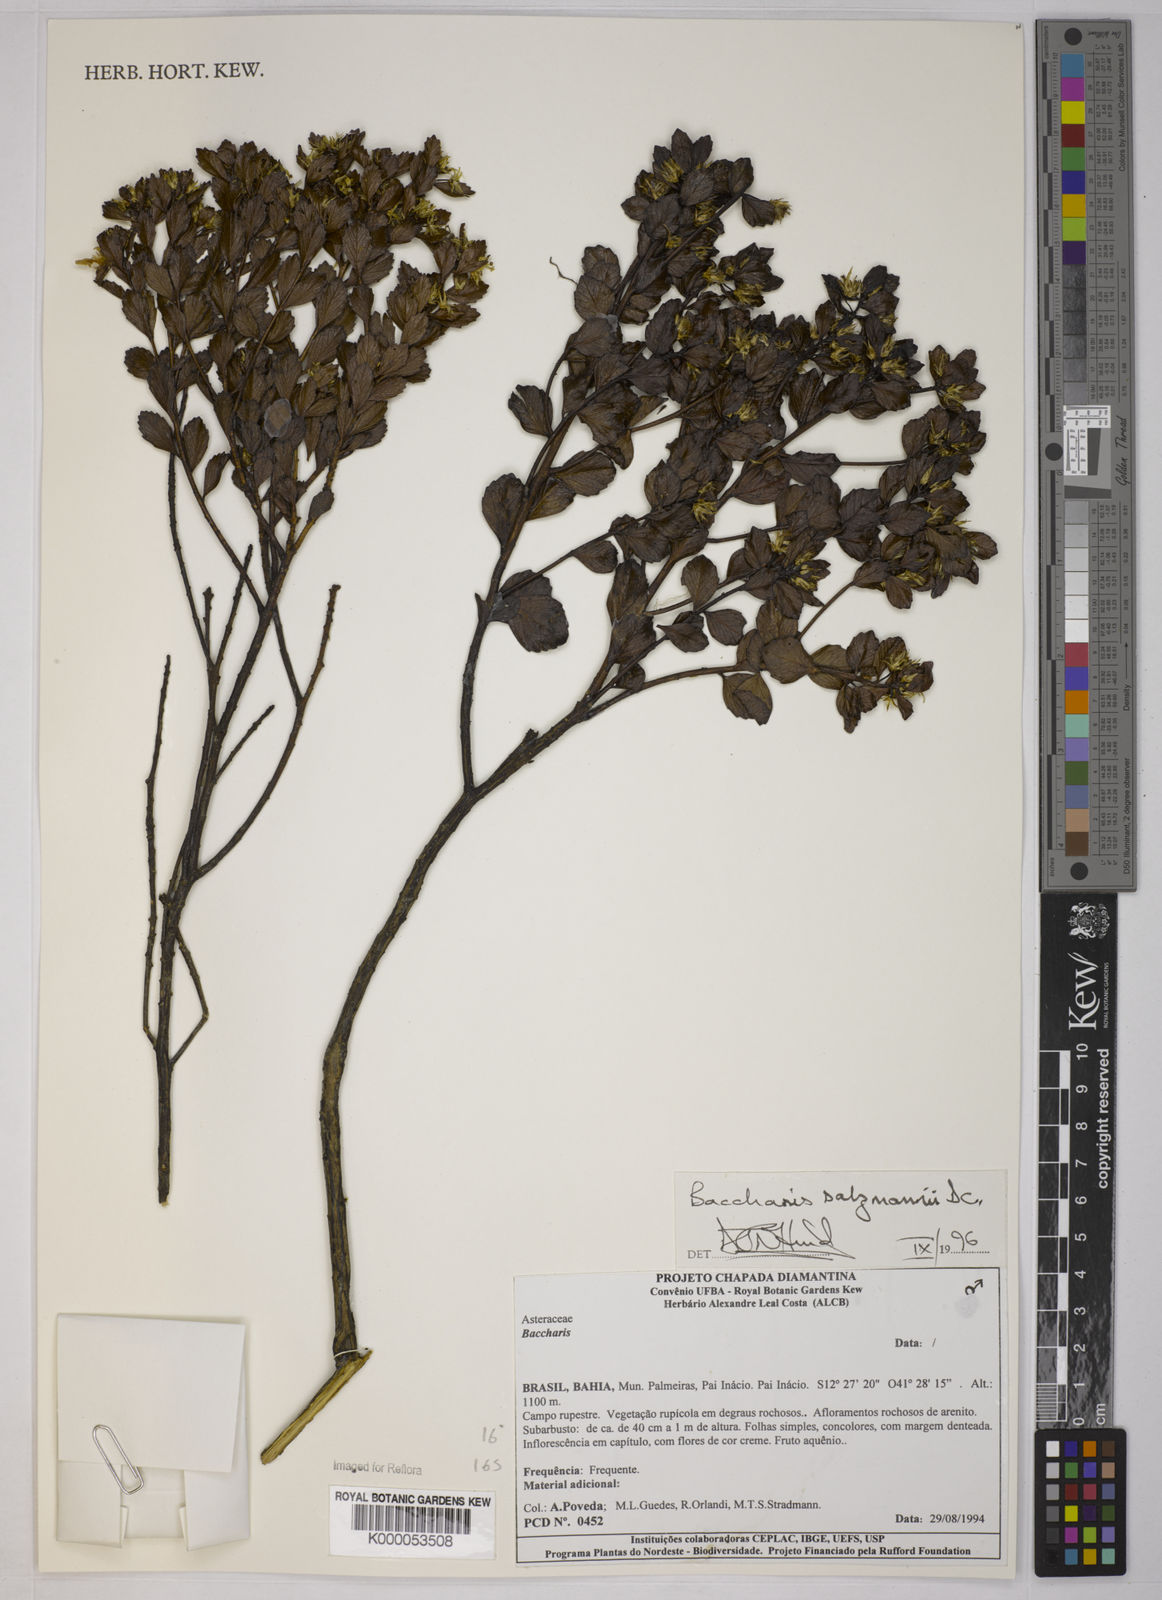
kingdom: Plantae
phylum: Tracheophyta
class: Magnoliopsida
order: Asterales
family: Asteraceae
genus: Baccharis
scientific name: Baccharis retusa
